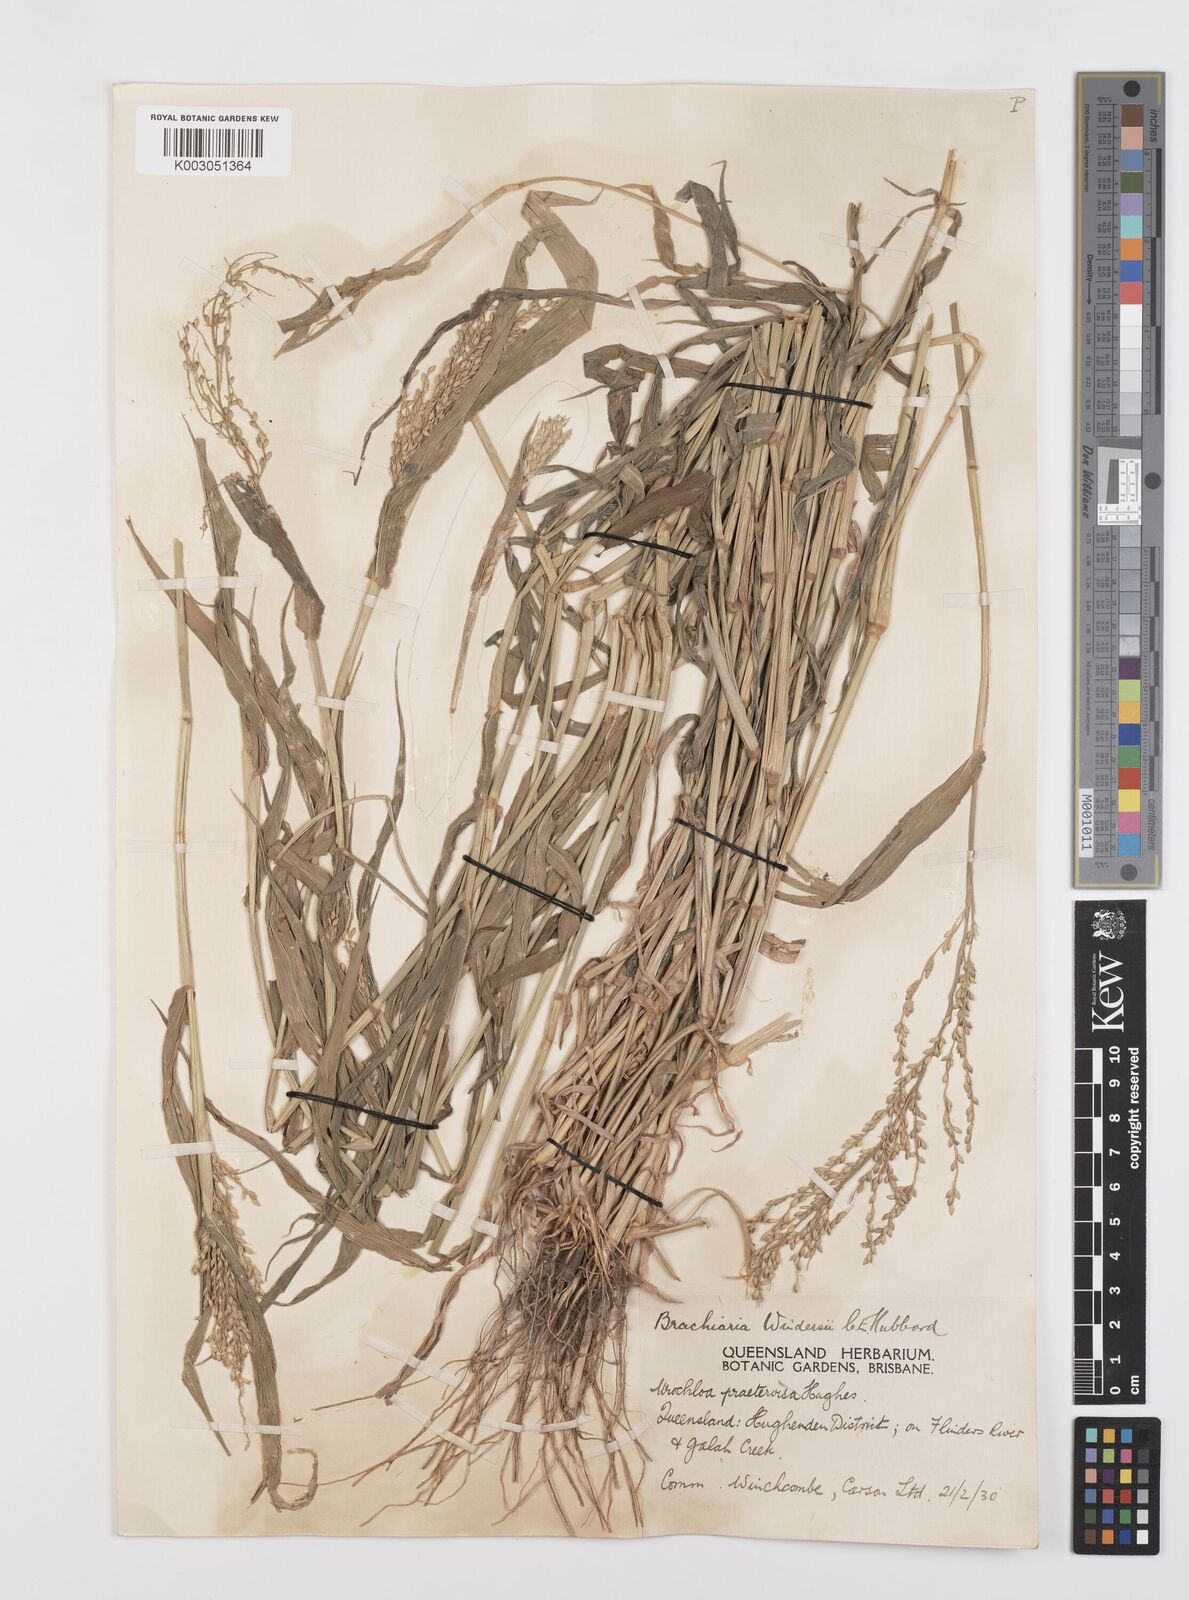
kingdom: Plantae
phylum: Tracheophyta
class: Liliopsida
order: Poales
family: Poaceae
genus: Urochloa
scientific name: Urochloa whiteana
